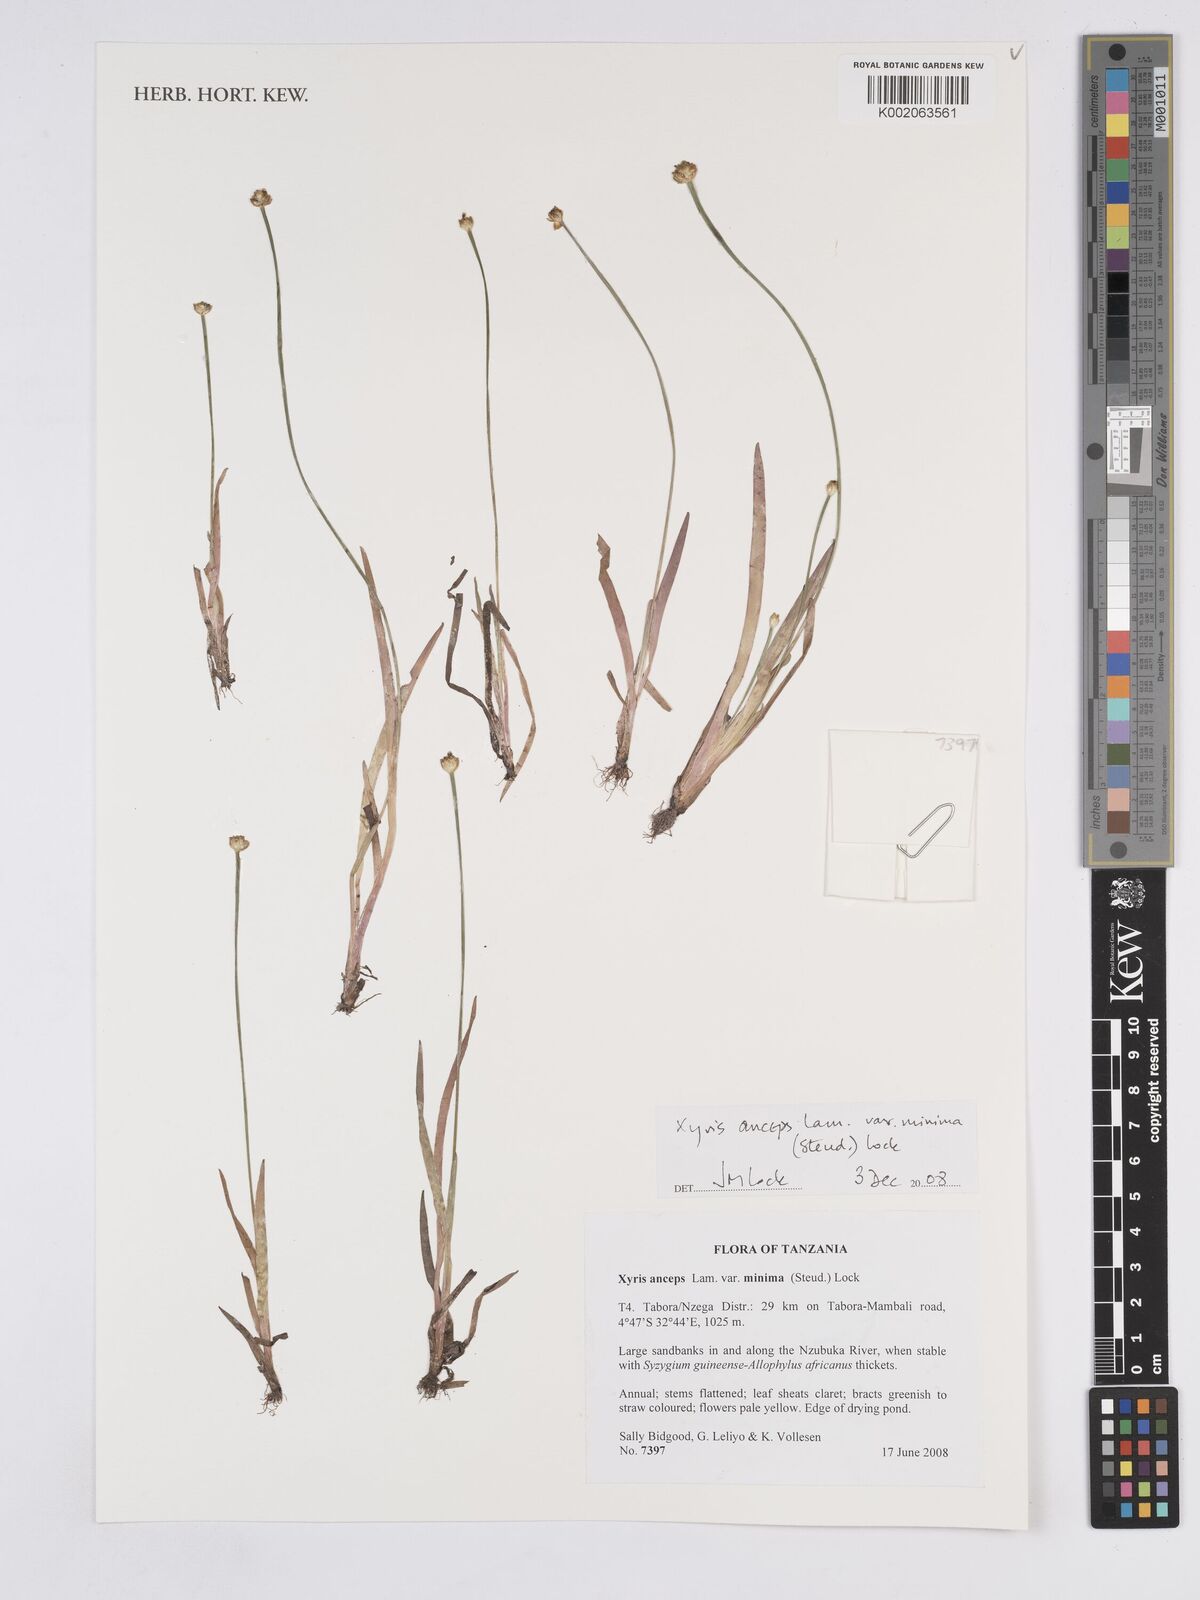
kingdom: Plantae
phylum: Tracheophyta
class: Liliopsida
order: Poales
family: Xyridaceae
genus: Xyris
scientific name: Xyris anceps
